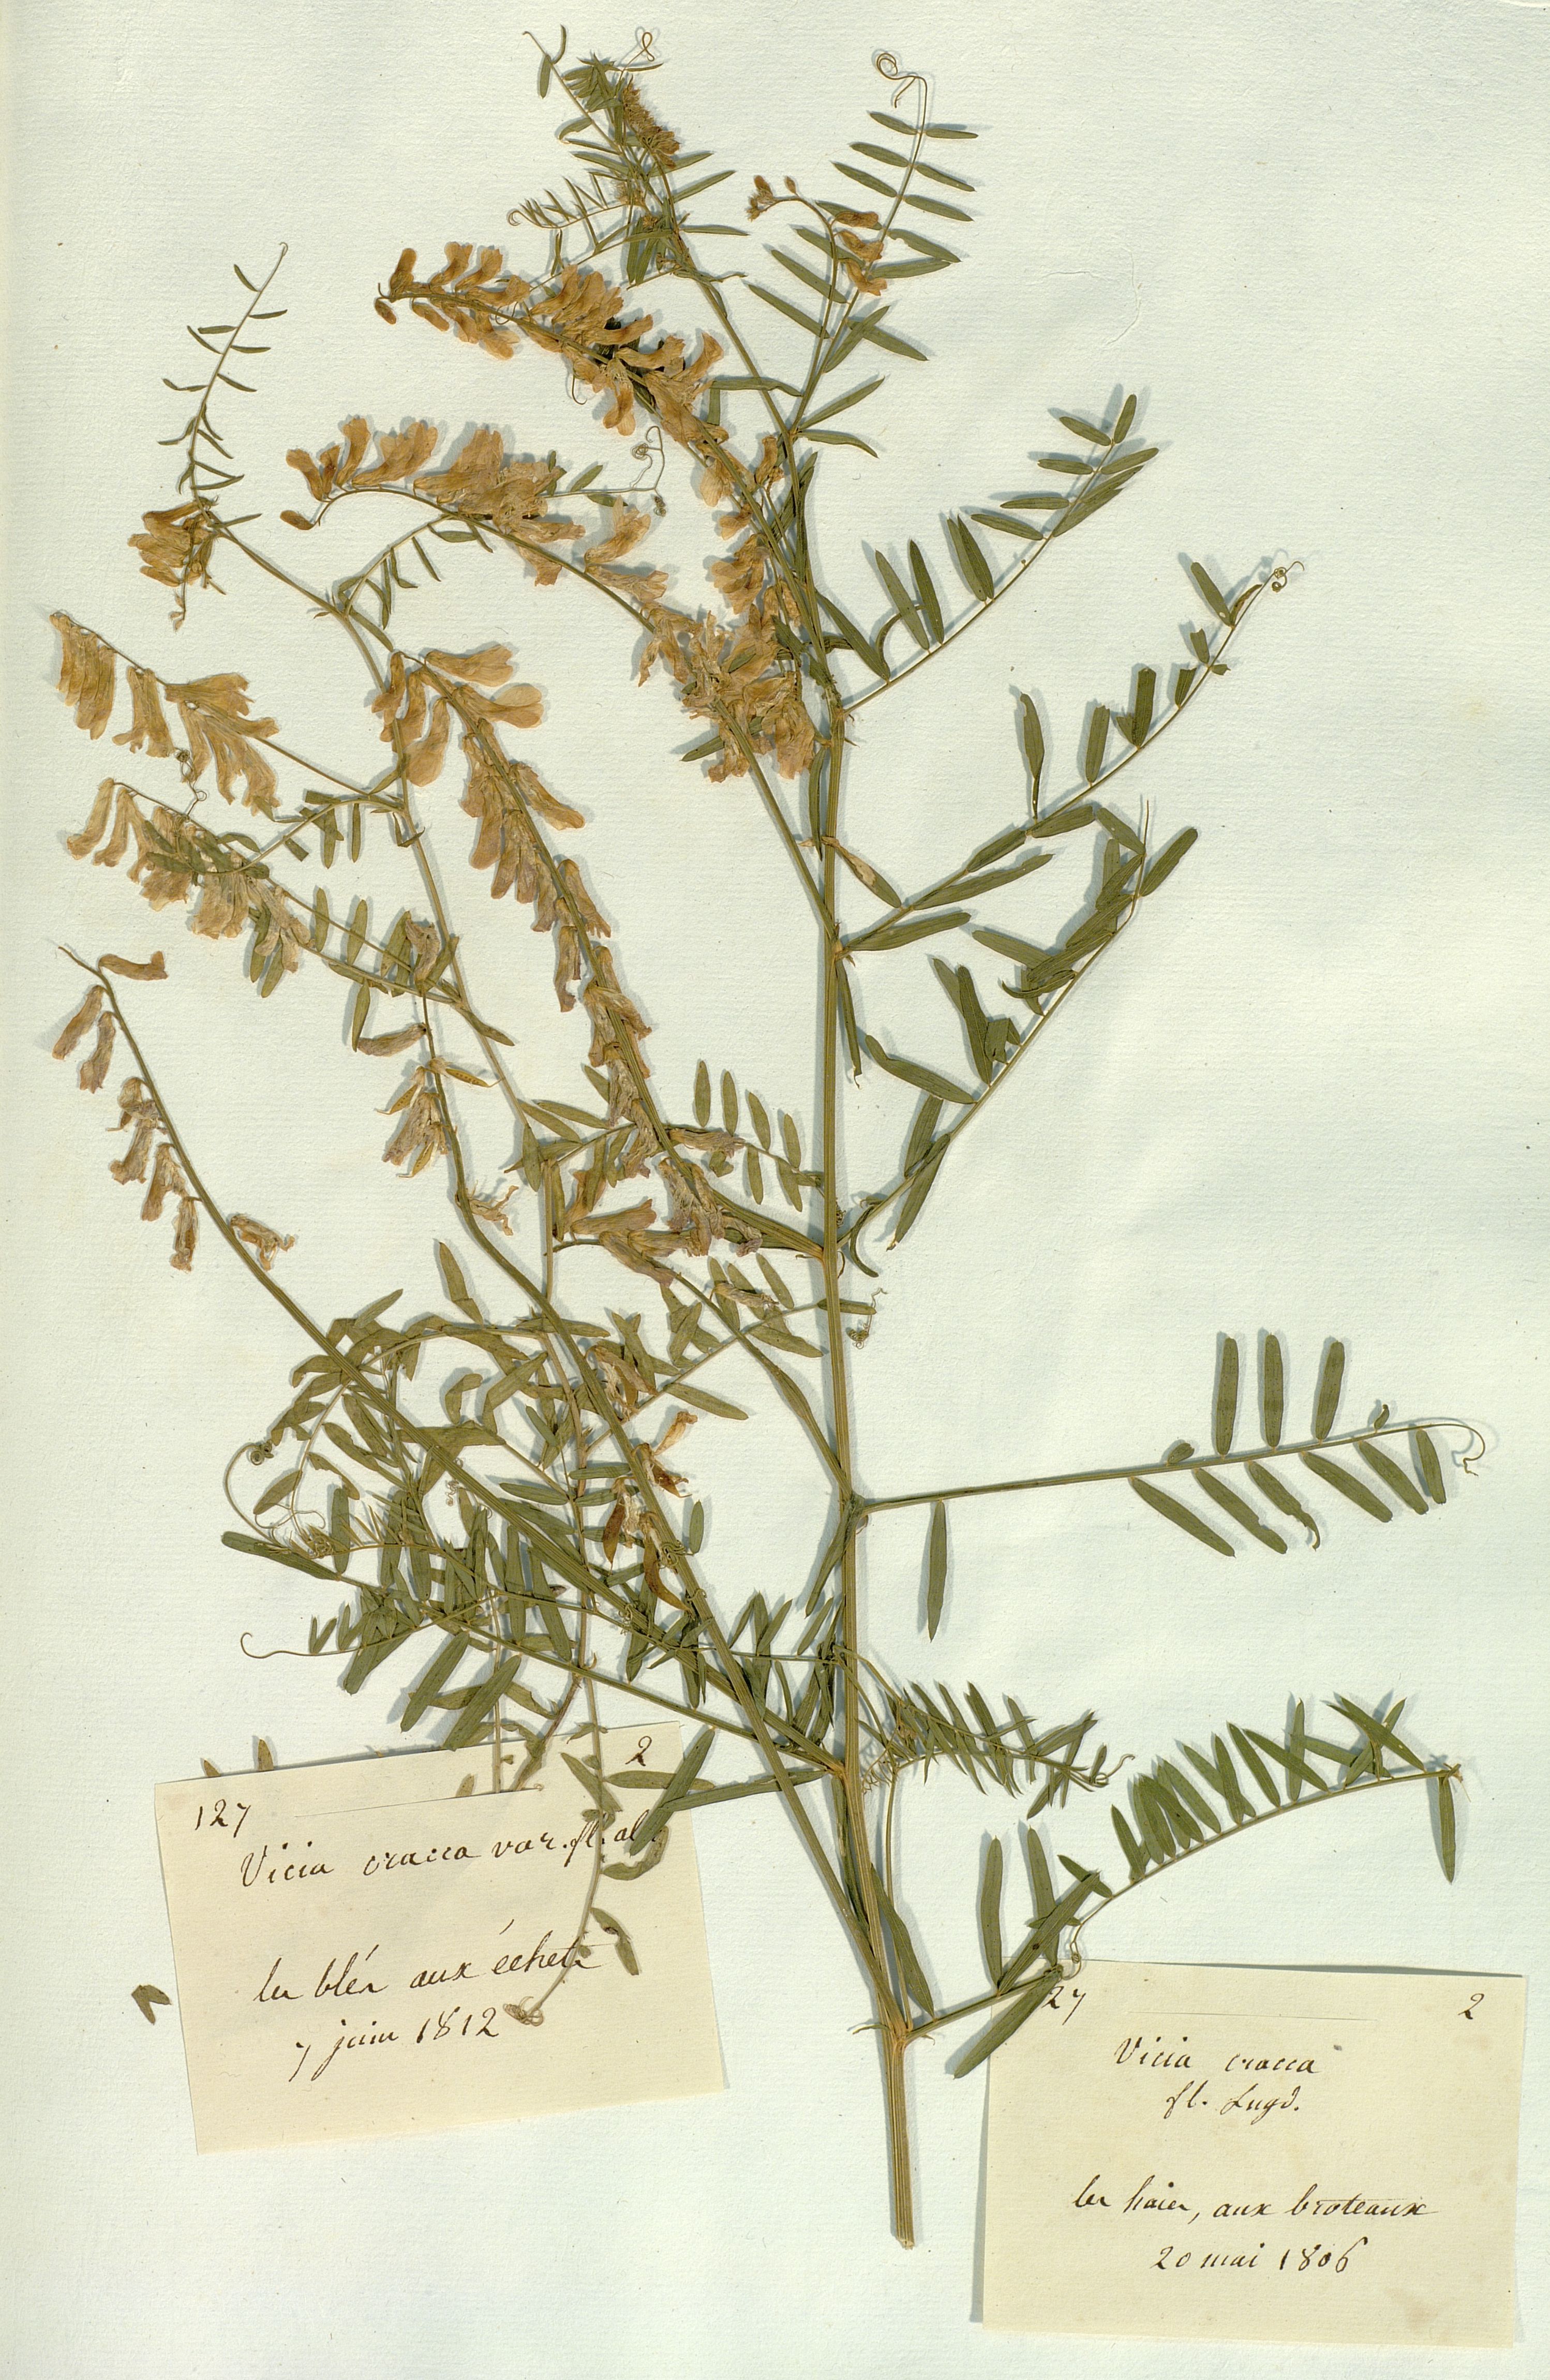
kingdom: Plantae
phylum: Tracheophyta
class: Magnoliopsida
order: Fabales
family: Fabaceae
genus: Vicia
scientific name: Vicia cracca
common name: Bird vetch
